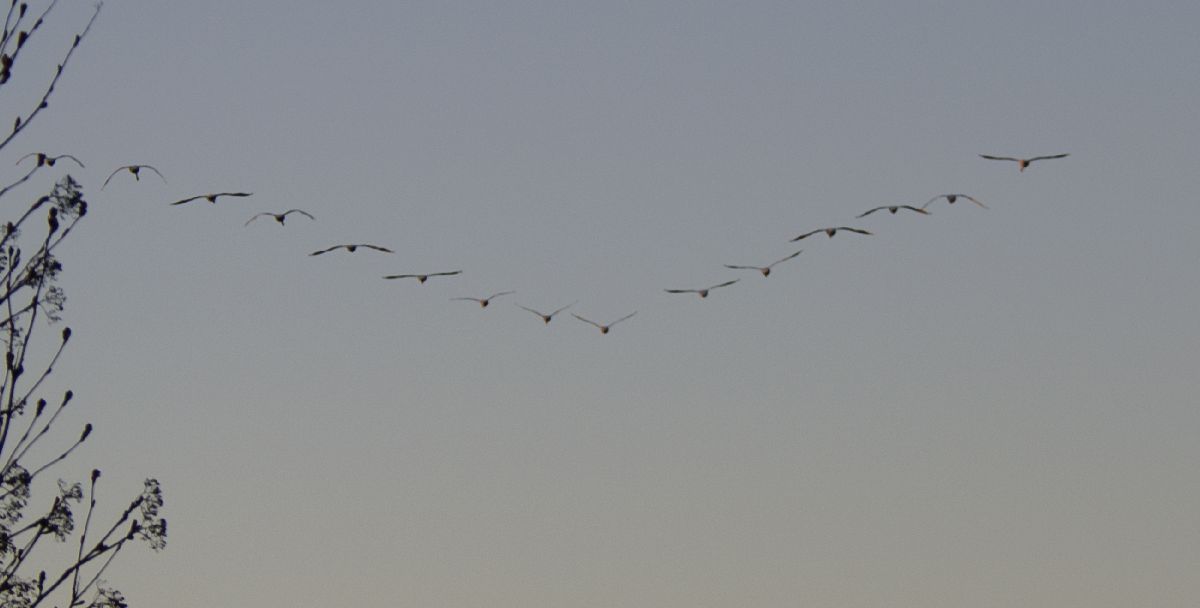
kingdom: Animalia
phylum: Chordata
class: Aves
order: Anseriformes
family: Anatidae
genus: Cygnus
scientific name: Cygnus cygnus
